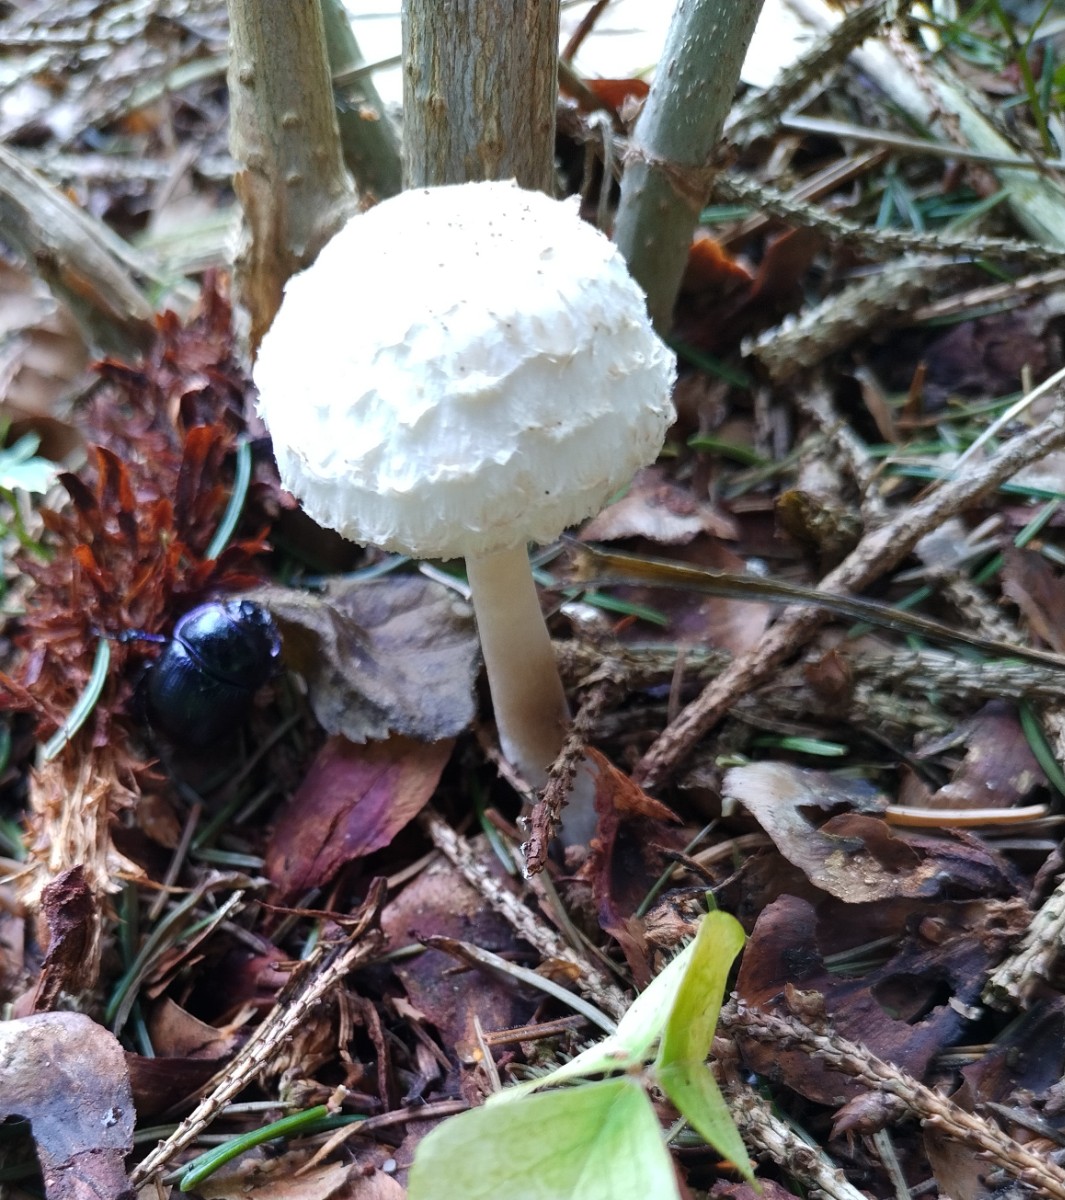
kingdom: Fungi
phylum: Basidiomycota
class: Agaricomycetes
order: Agaricales
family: Agaricaceae
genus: Leucoagaricus
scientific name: Leucoagaricus nympharum
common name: gran-silkehat
